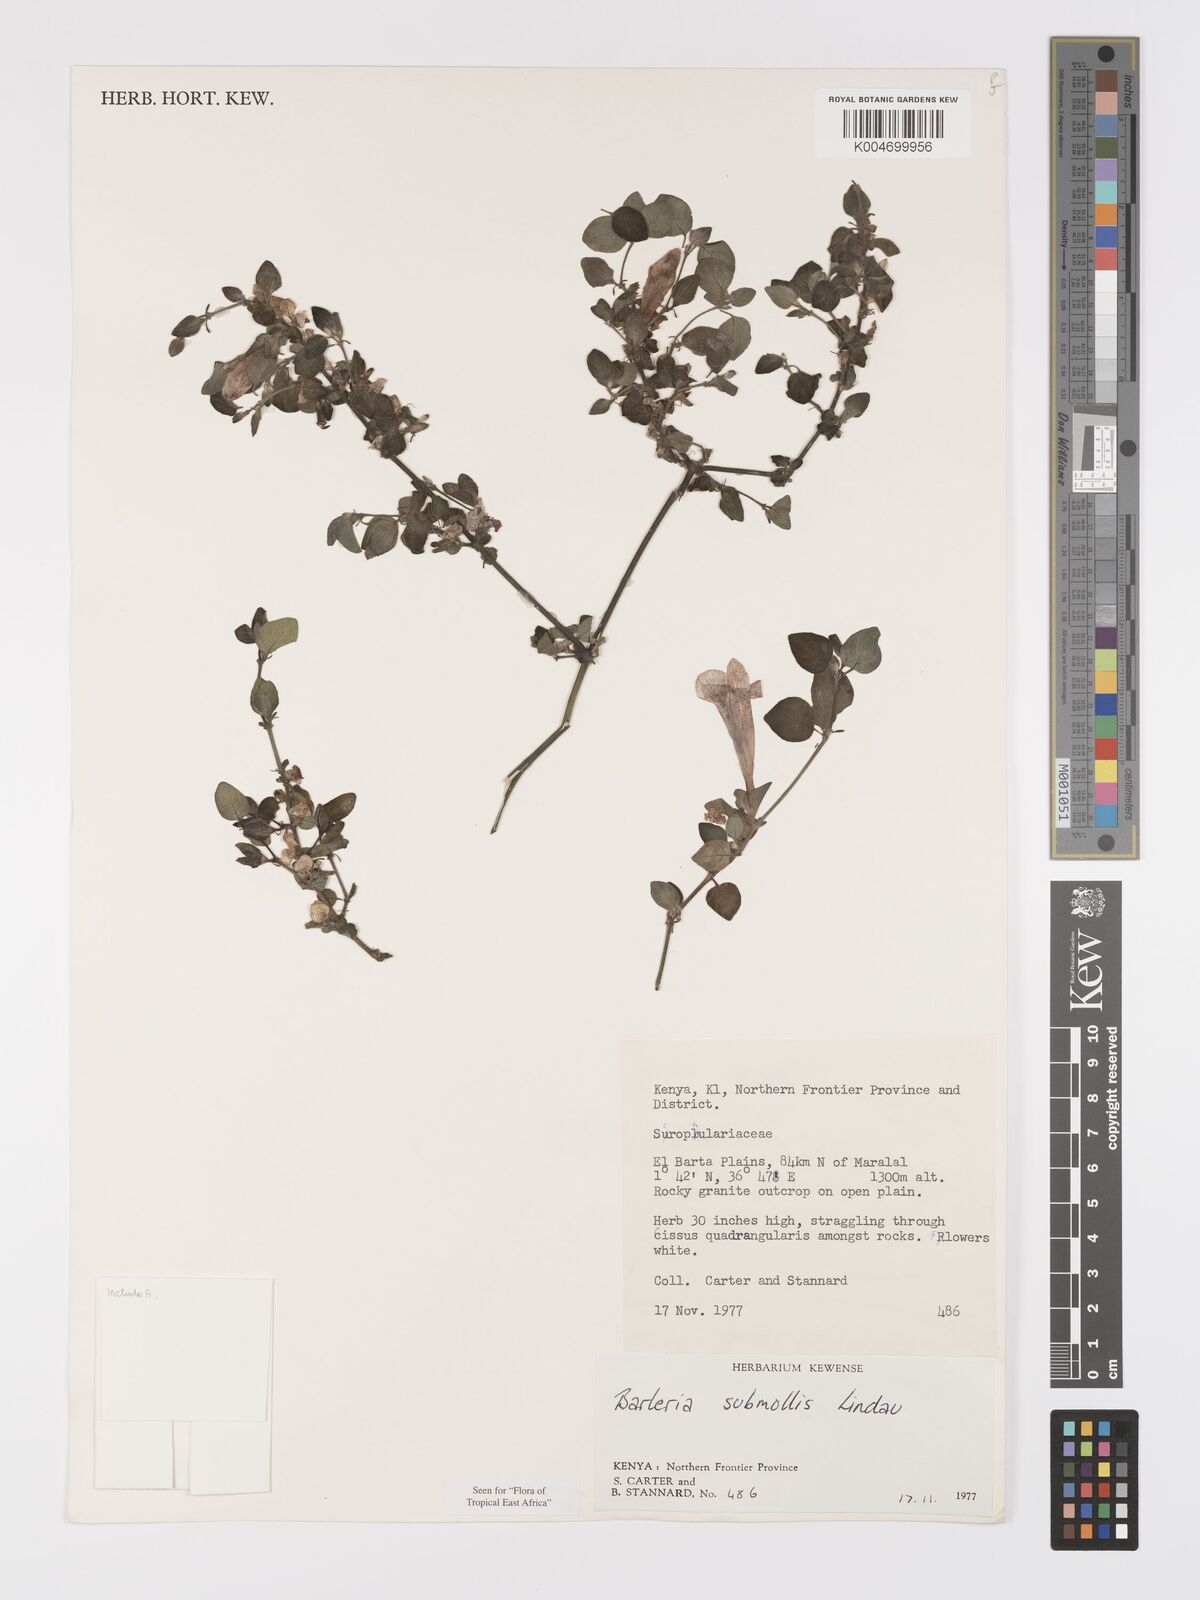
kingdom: Plantae
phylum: Tracheophyta
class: Magnoliopsida
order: Lamiales
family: Acanthaceae
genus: Barleria
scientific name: Barleria submollis
